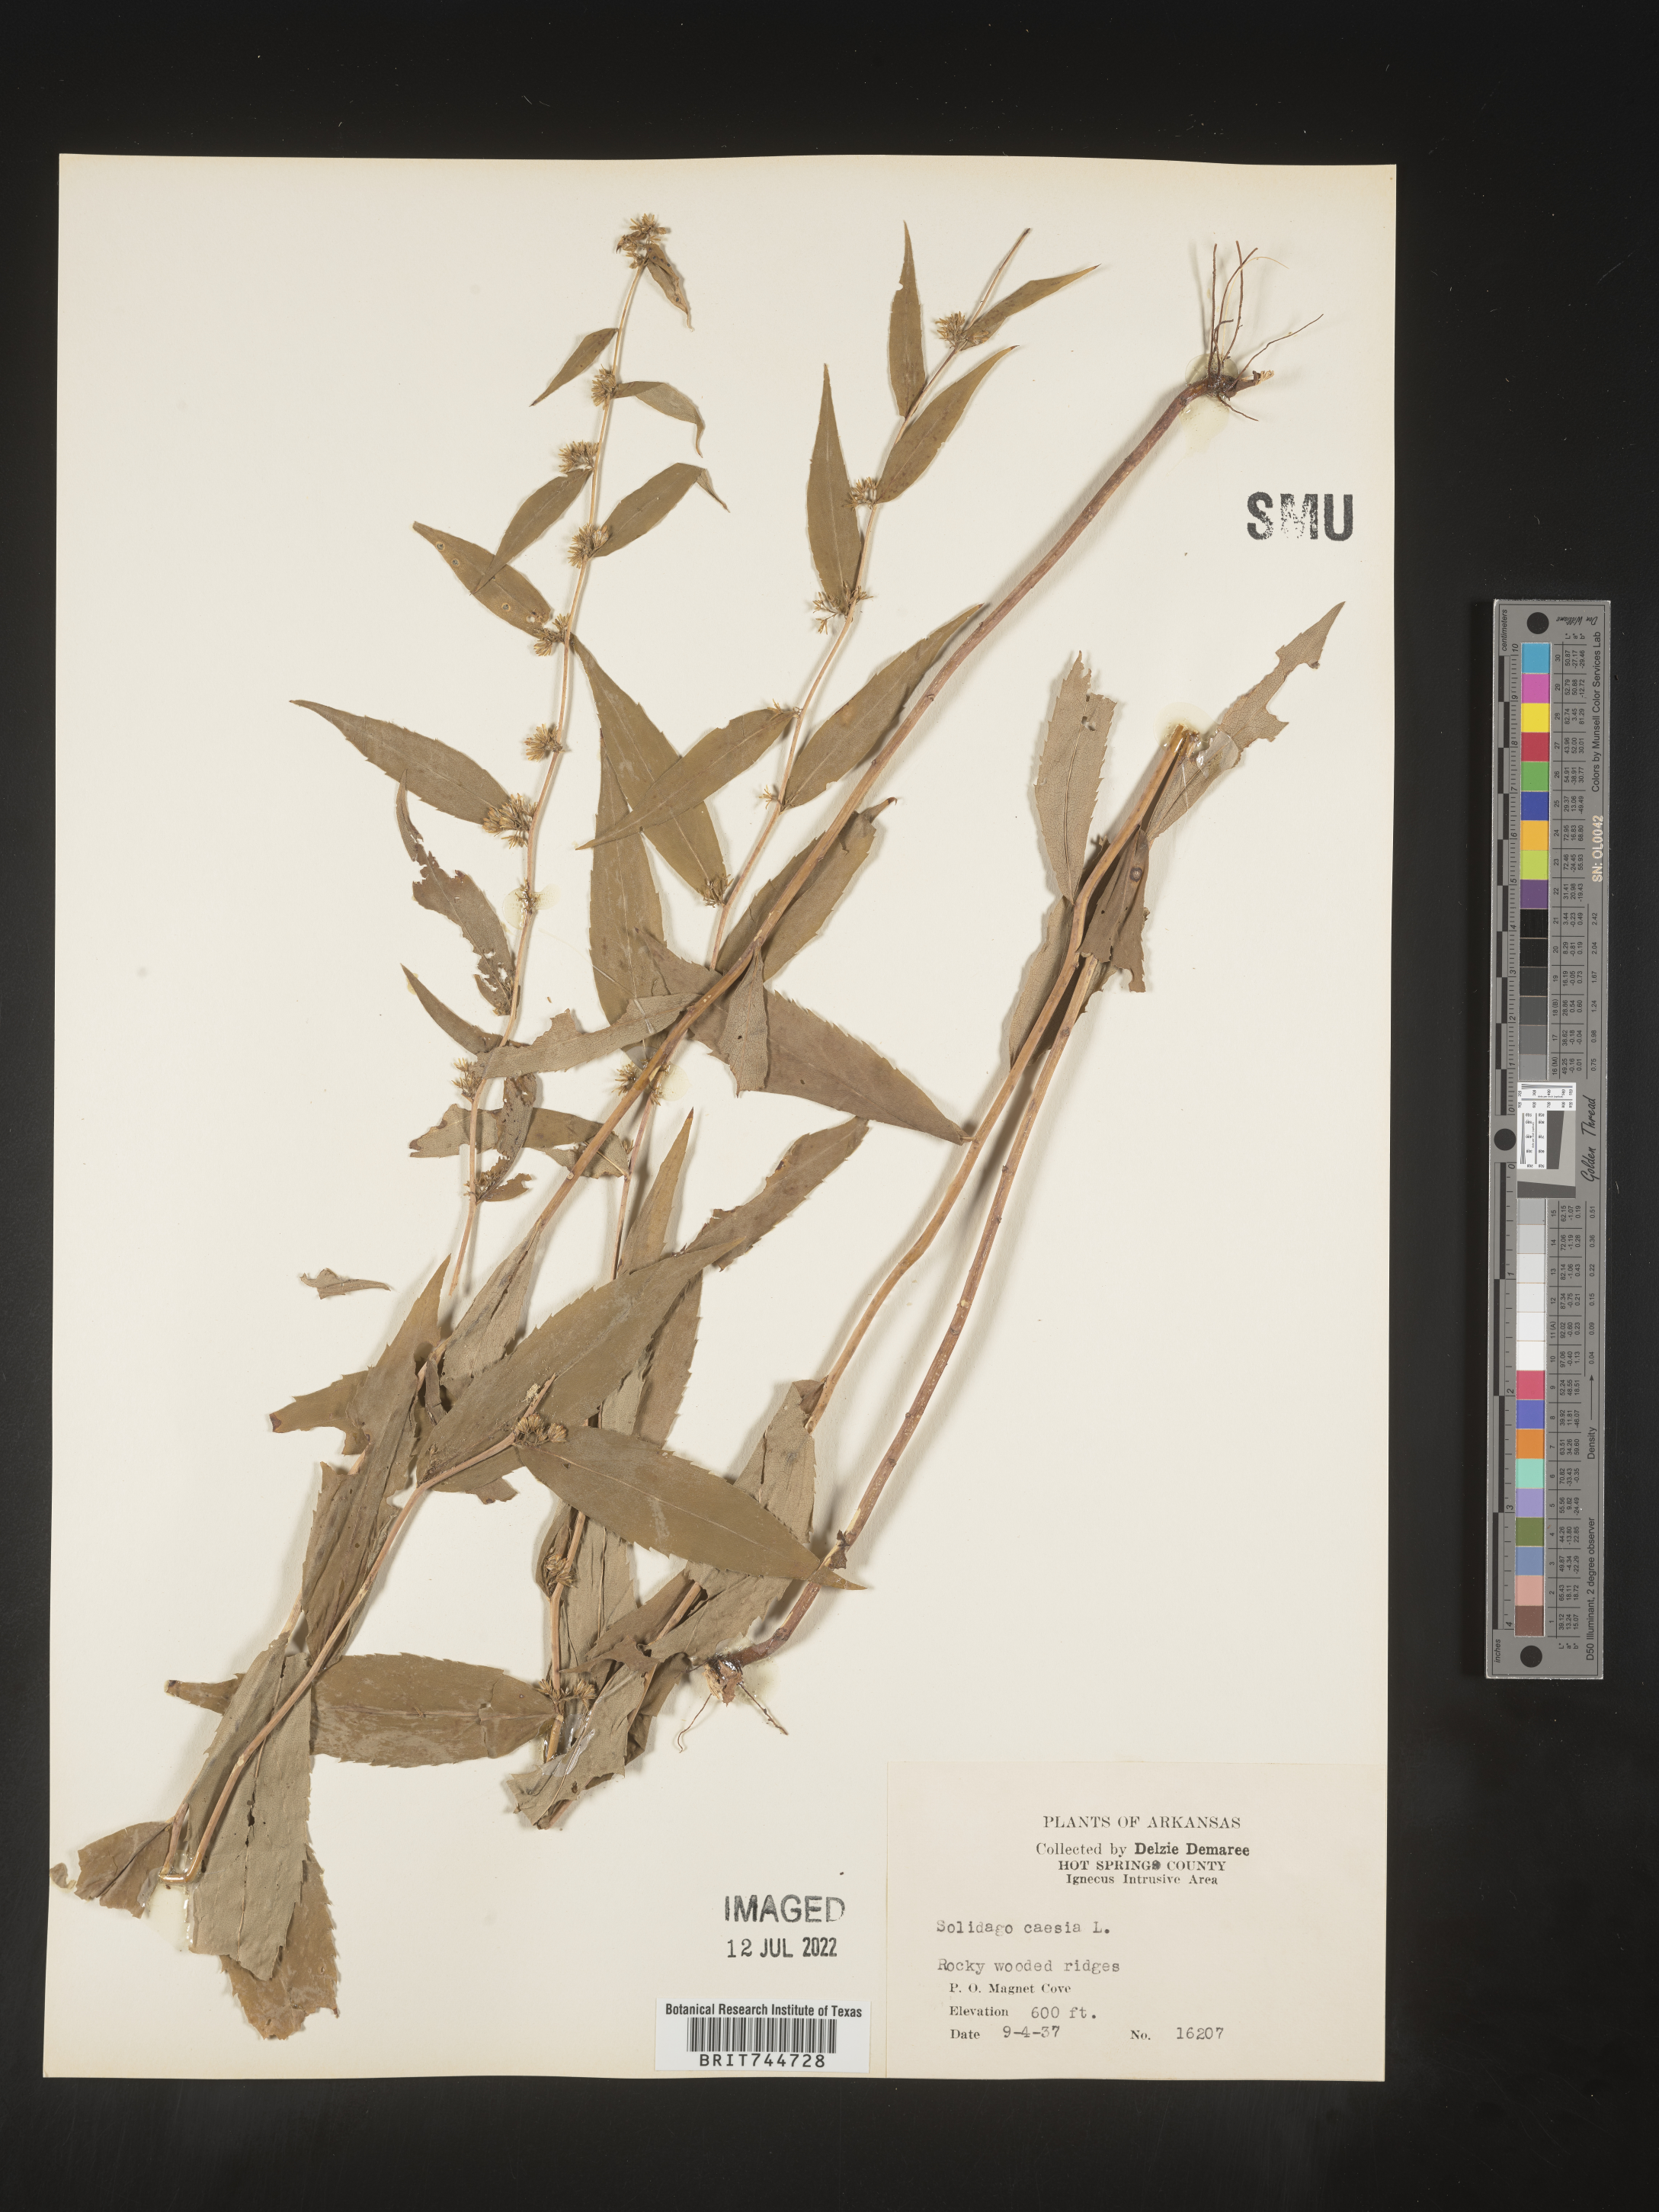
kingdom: Plantae
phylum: Tracheophyta
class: Magnoliopsida
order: Asterales
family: Asteraceae
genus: Solidago
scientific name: Solidago caesia
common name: Woodland goldenrod
